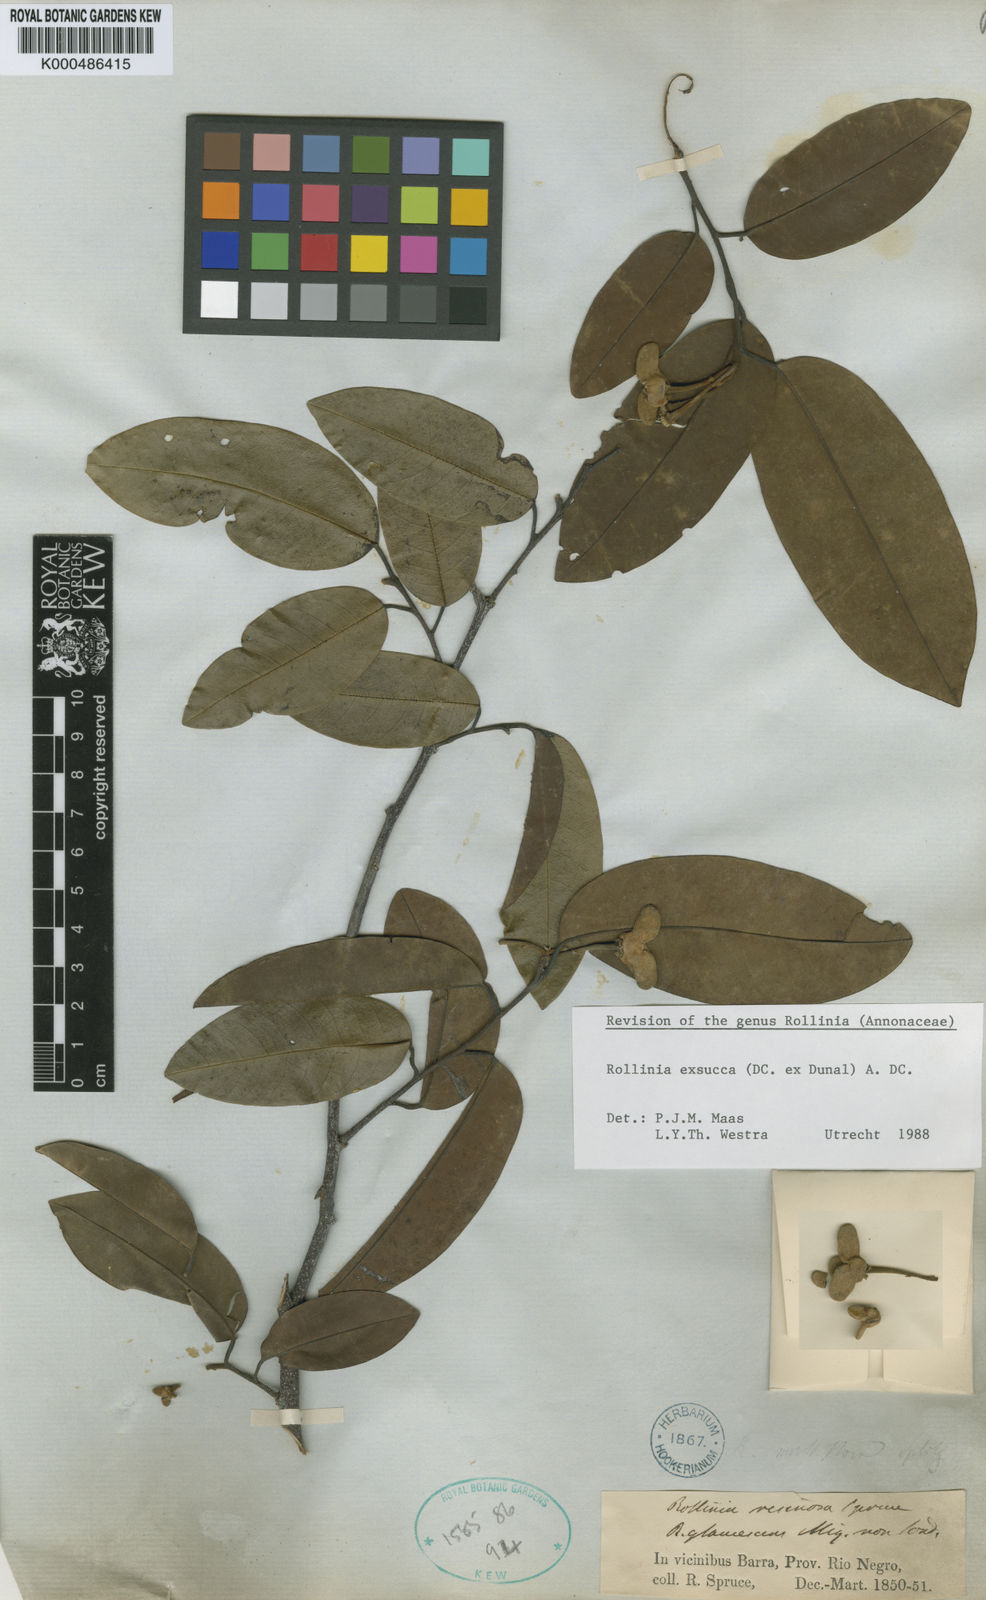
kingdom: Plantae
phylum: Tracheophyta
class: Magnoliopsida
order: Magnoliales
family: Annonaceae
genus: Annona
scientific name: Annona
